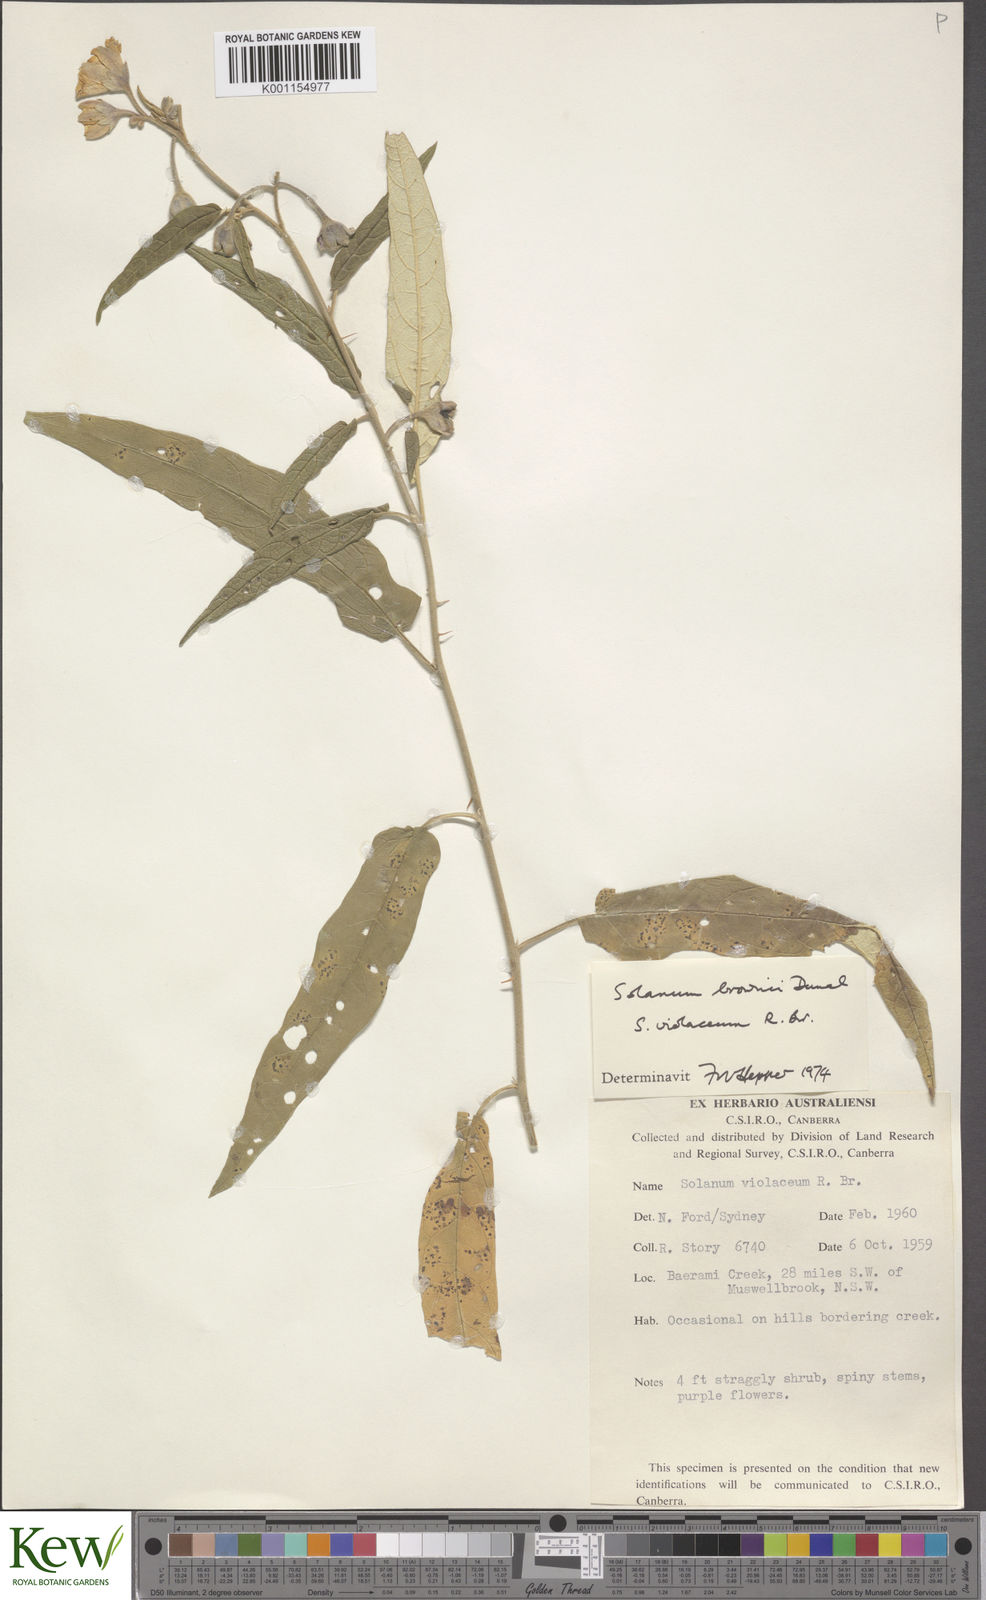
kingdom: Plantae
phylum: Tracheophyta
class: Magnoliopsida
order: Solanales
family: Solanaceae
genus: Solanum
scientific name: Solanum brownii
